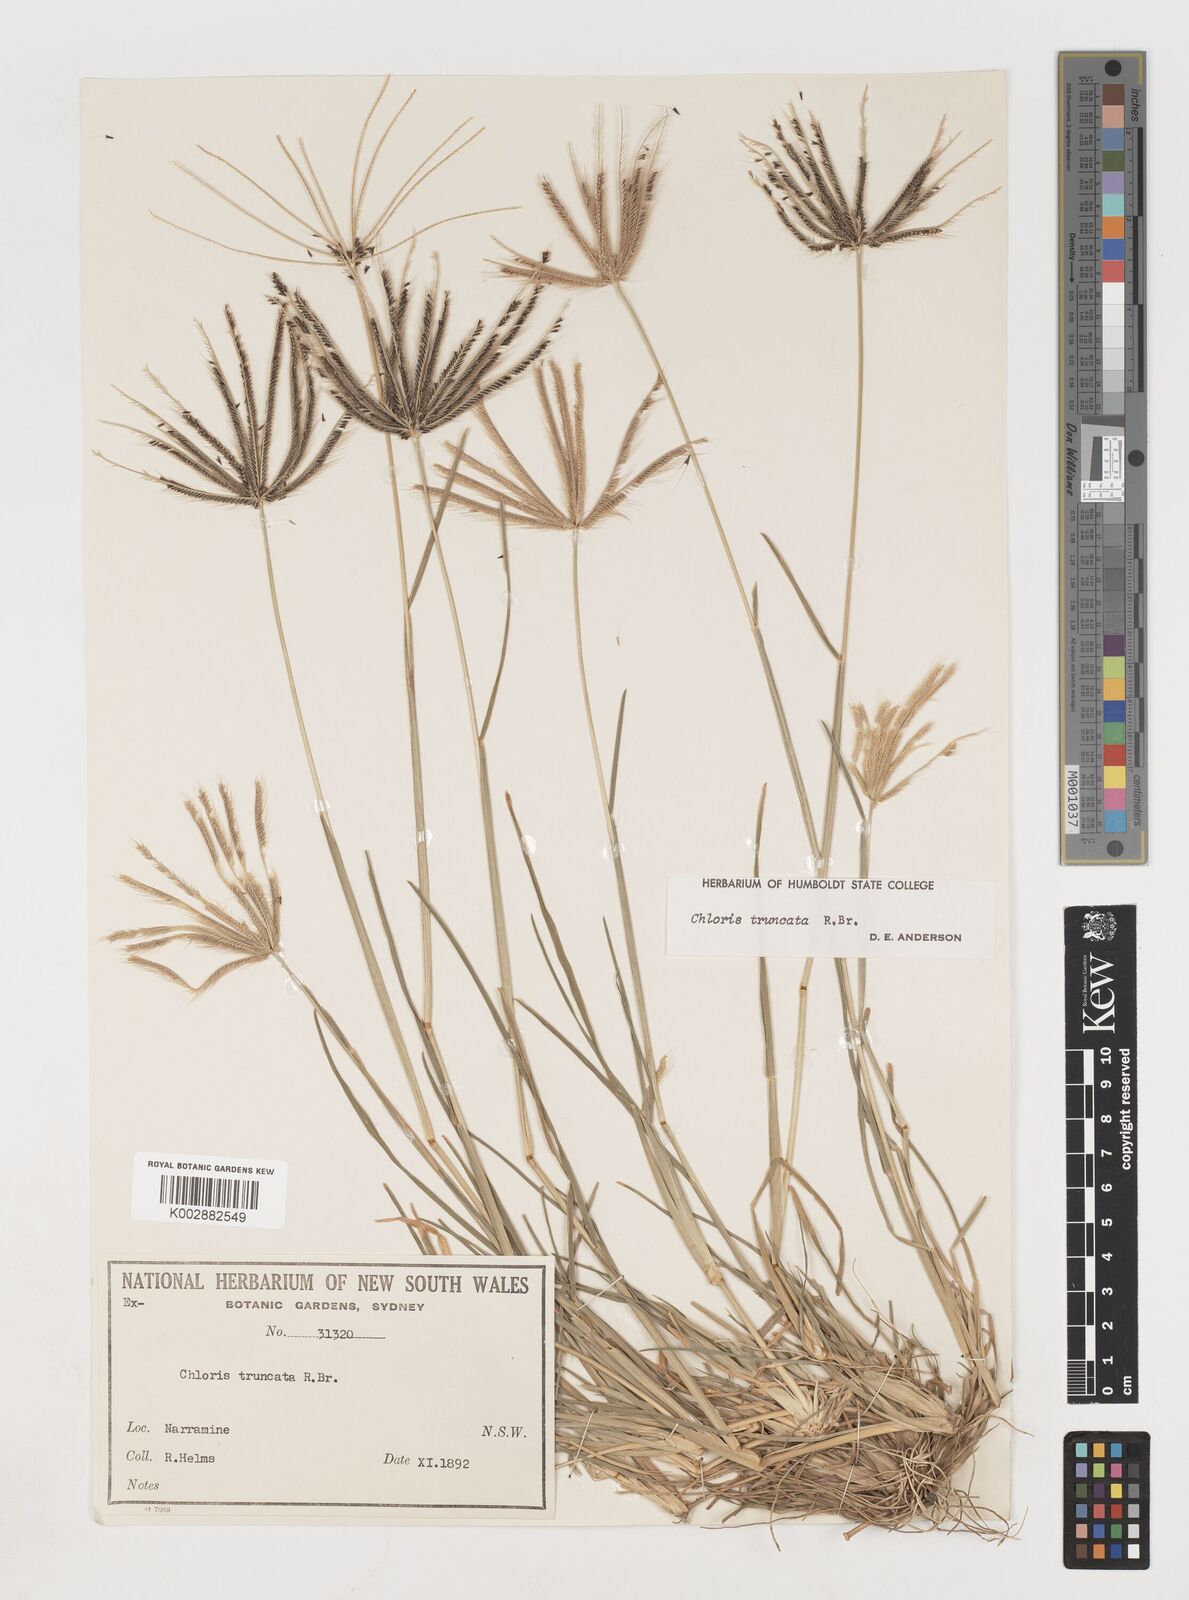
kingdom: Plantae
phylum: Tracheophyta
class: Liliopsida
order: Poales
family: Poaceae
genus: Chloris
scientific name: Chloris truncata
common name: Windmill-grass
